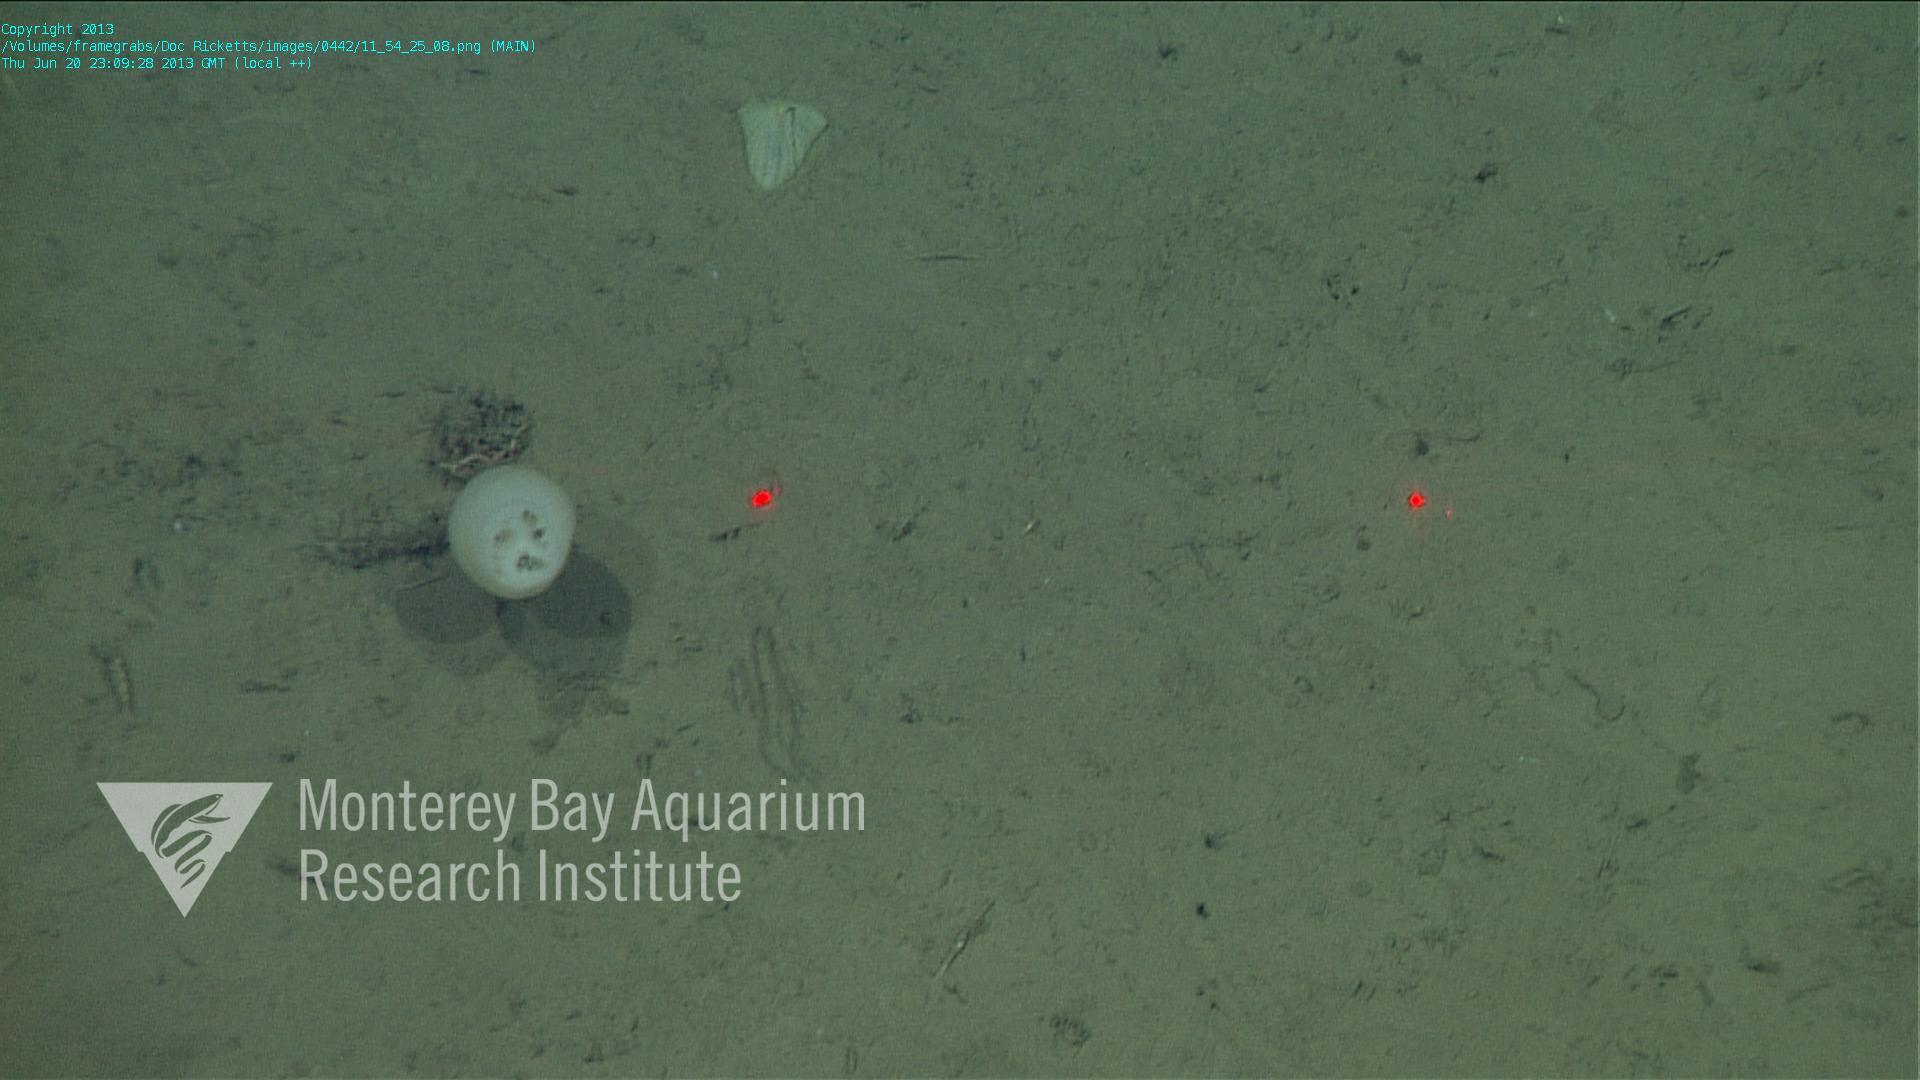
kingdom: Animalia
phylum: Porifera
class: Hexactinellida
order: Amphidiscosida
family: Hyalonematidae
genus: Hyalonema
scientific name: Hyalonema
